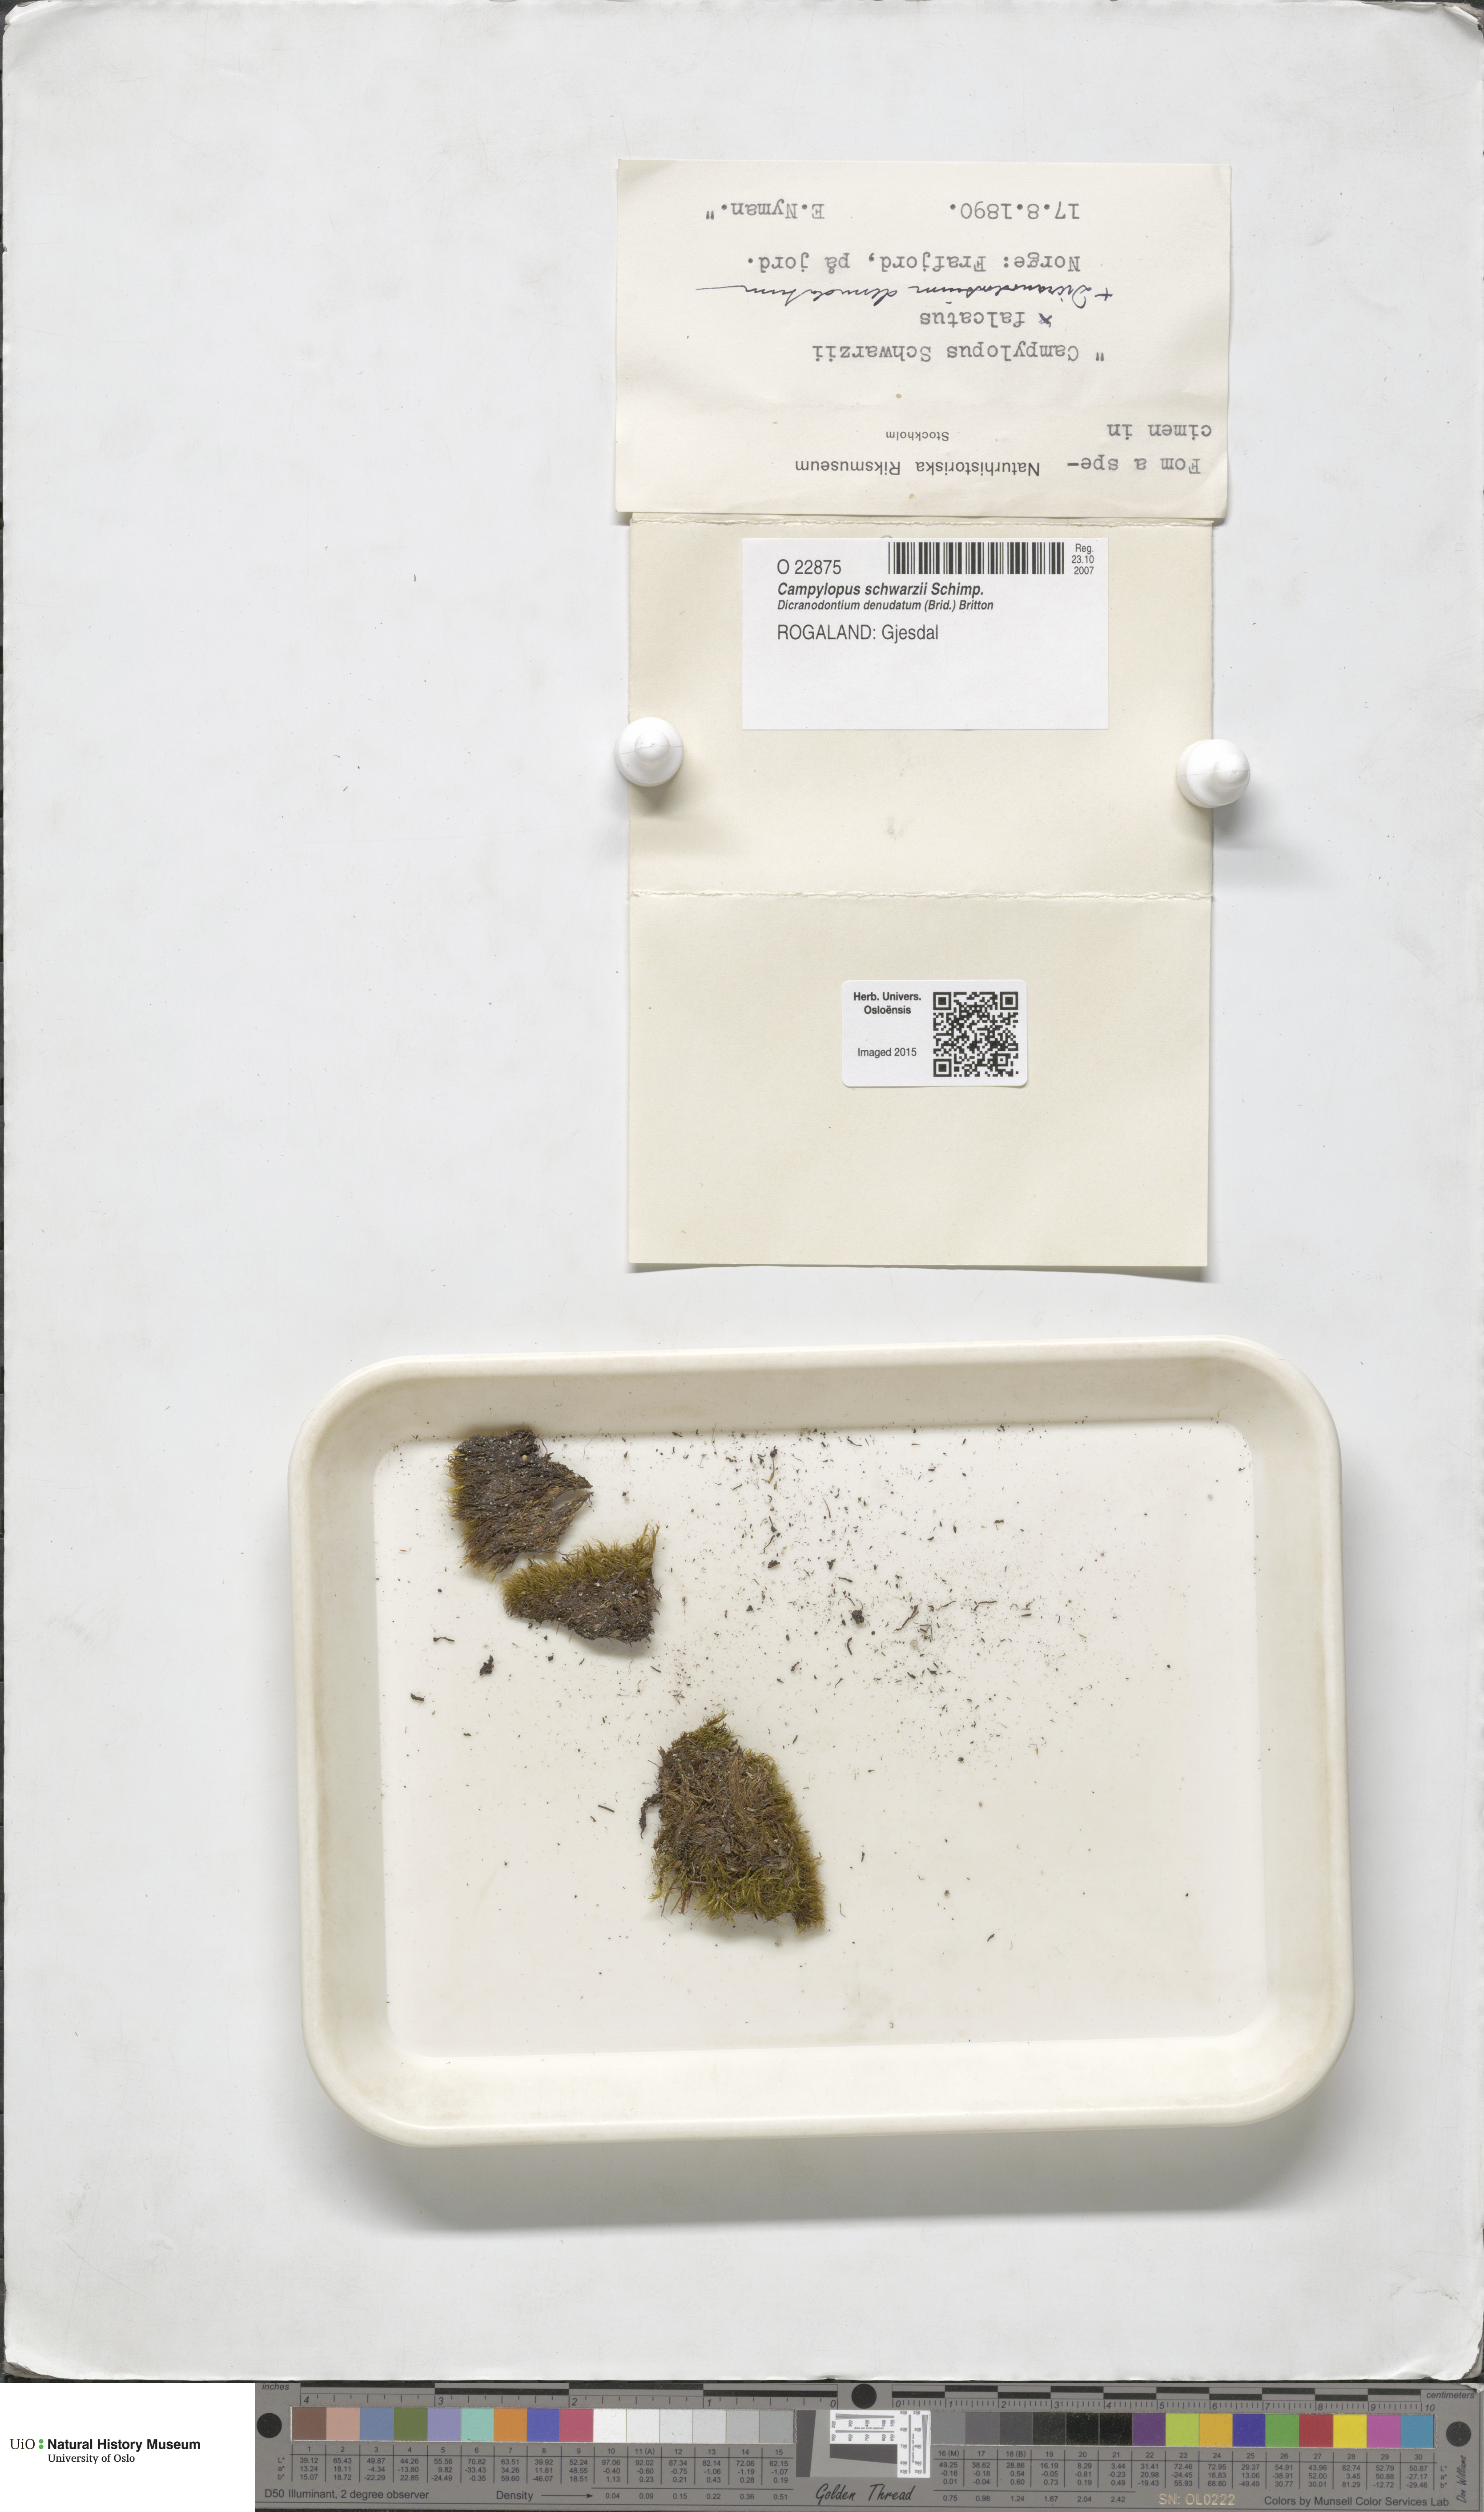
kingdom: Plantae
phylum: Bryophyta
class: Bryopsida
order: Dicranales
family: Leucobryaceae
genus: Campylopus
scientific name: Campylopus gracilis
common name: Schwarz's swan-neck moss
